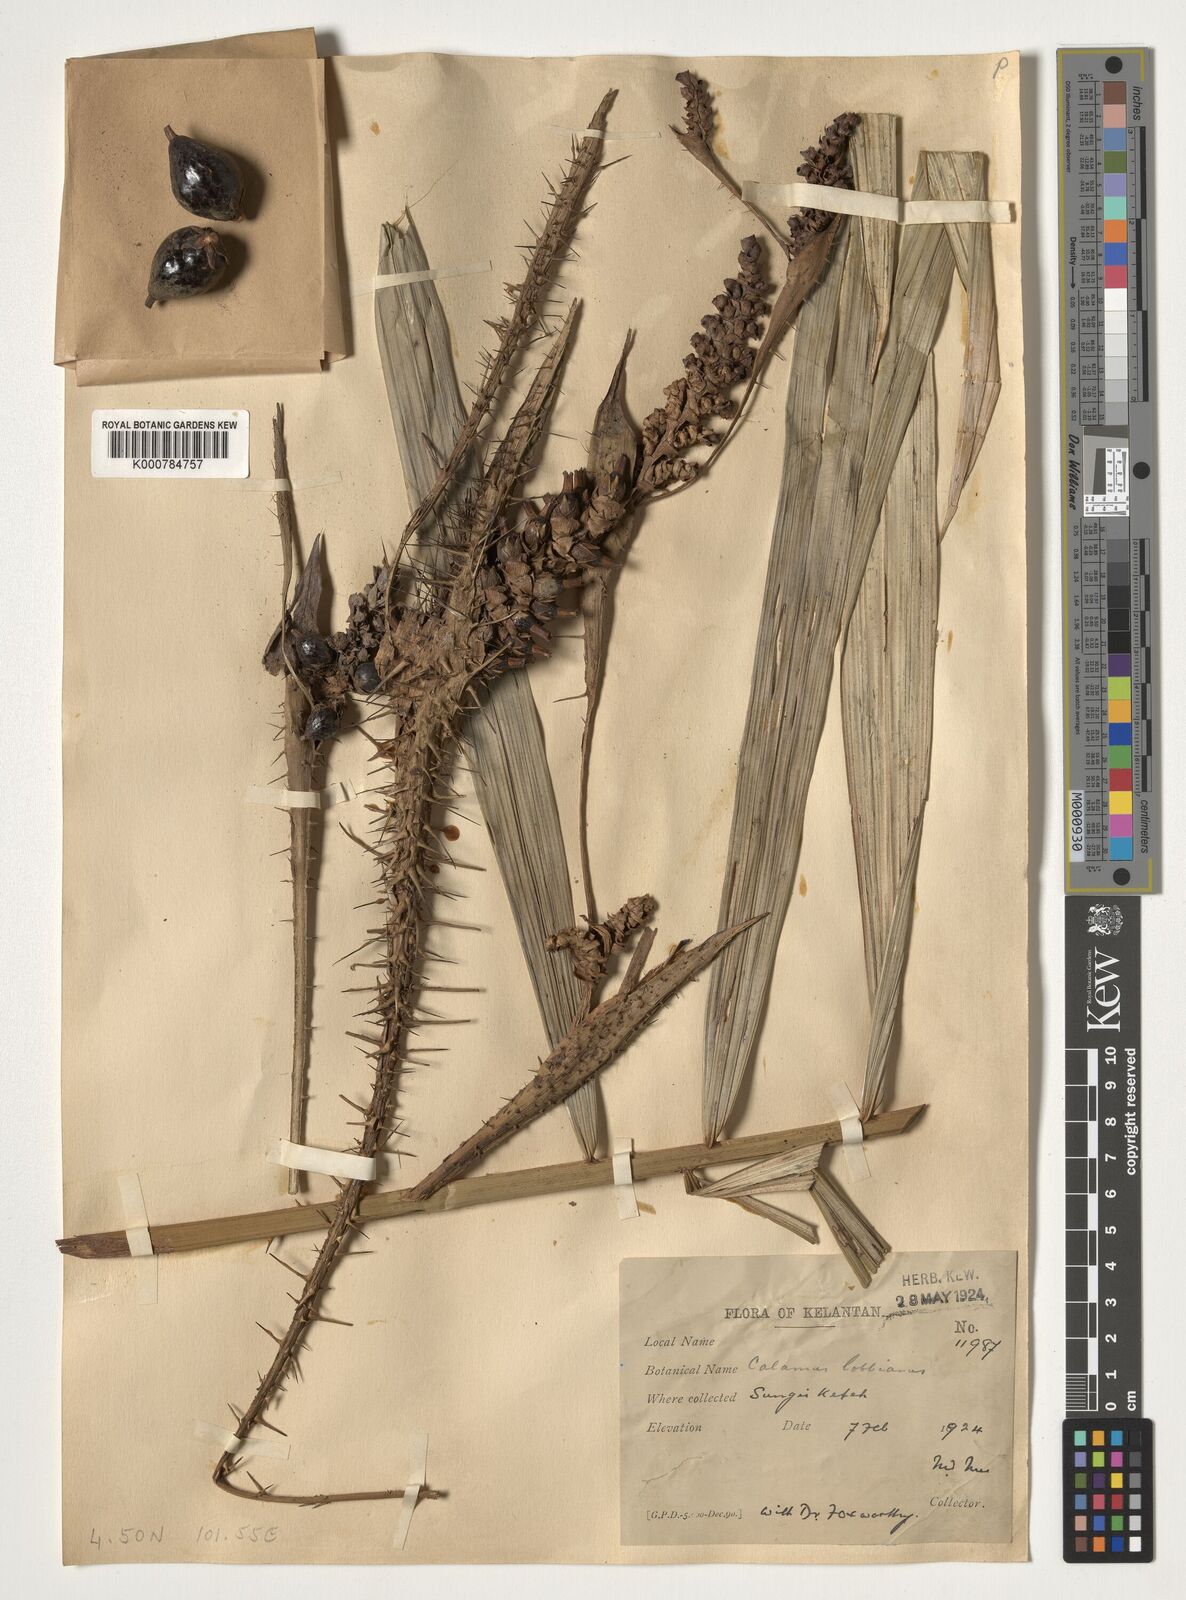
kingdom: Plantae
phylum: Tracheophyta
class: Liliopsida
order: Arecales
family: Arecaceae
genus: Calamus
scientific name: Calamus lobbianus
